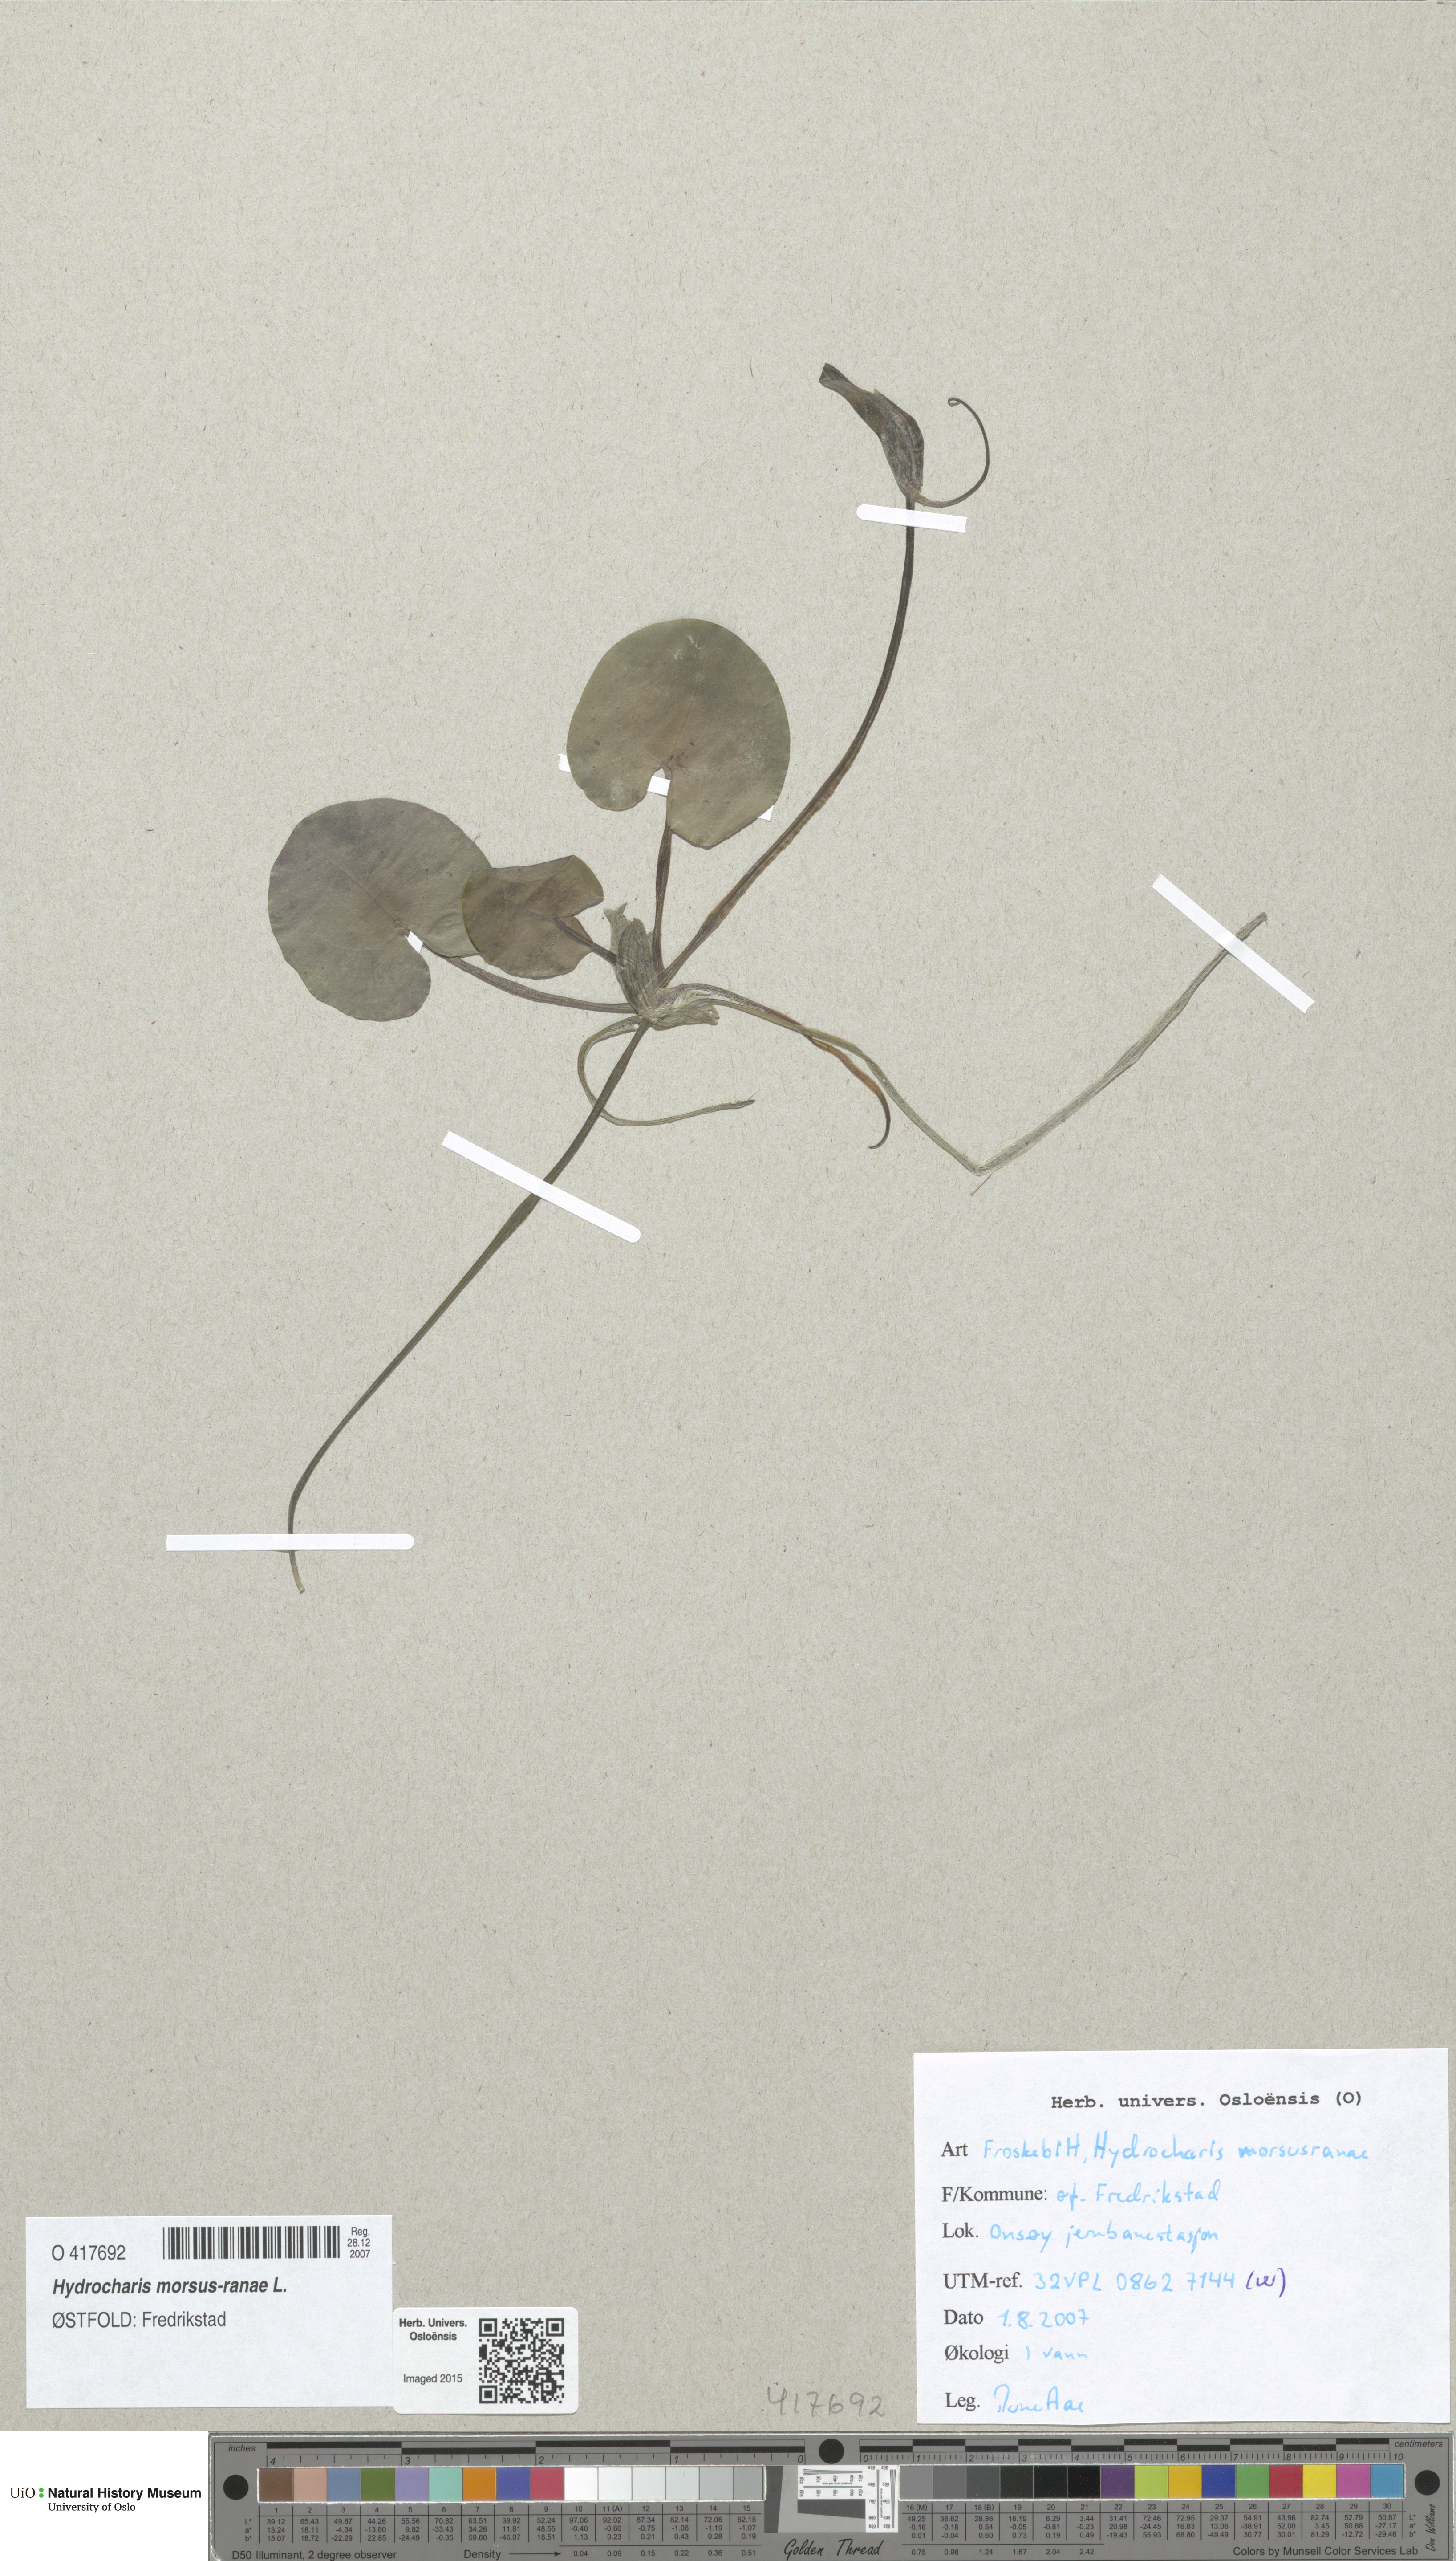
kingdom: Plantae
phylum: Tracheophyta
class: Liliopsida
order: Alismatales
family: Hydrocharitaceae
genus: Hydrocharis
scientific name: Hydrocharis morsus-ranae
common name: Frogbit
